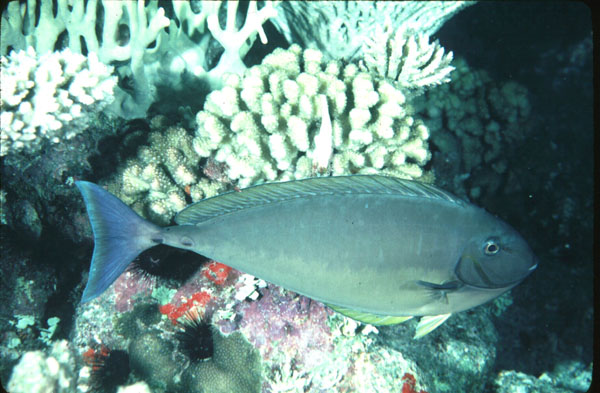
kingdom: Animalia
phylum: Chordata
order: Perciformes
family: Acanthuridae
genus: Naso
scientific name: Naso hexacanthus
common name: Black unicornfish
